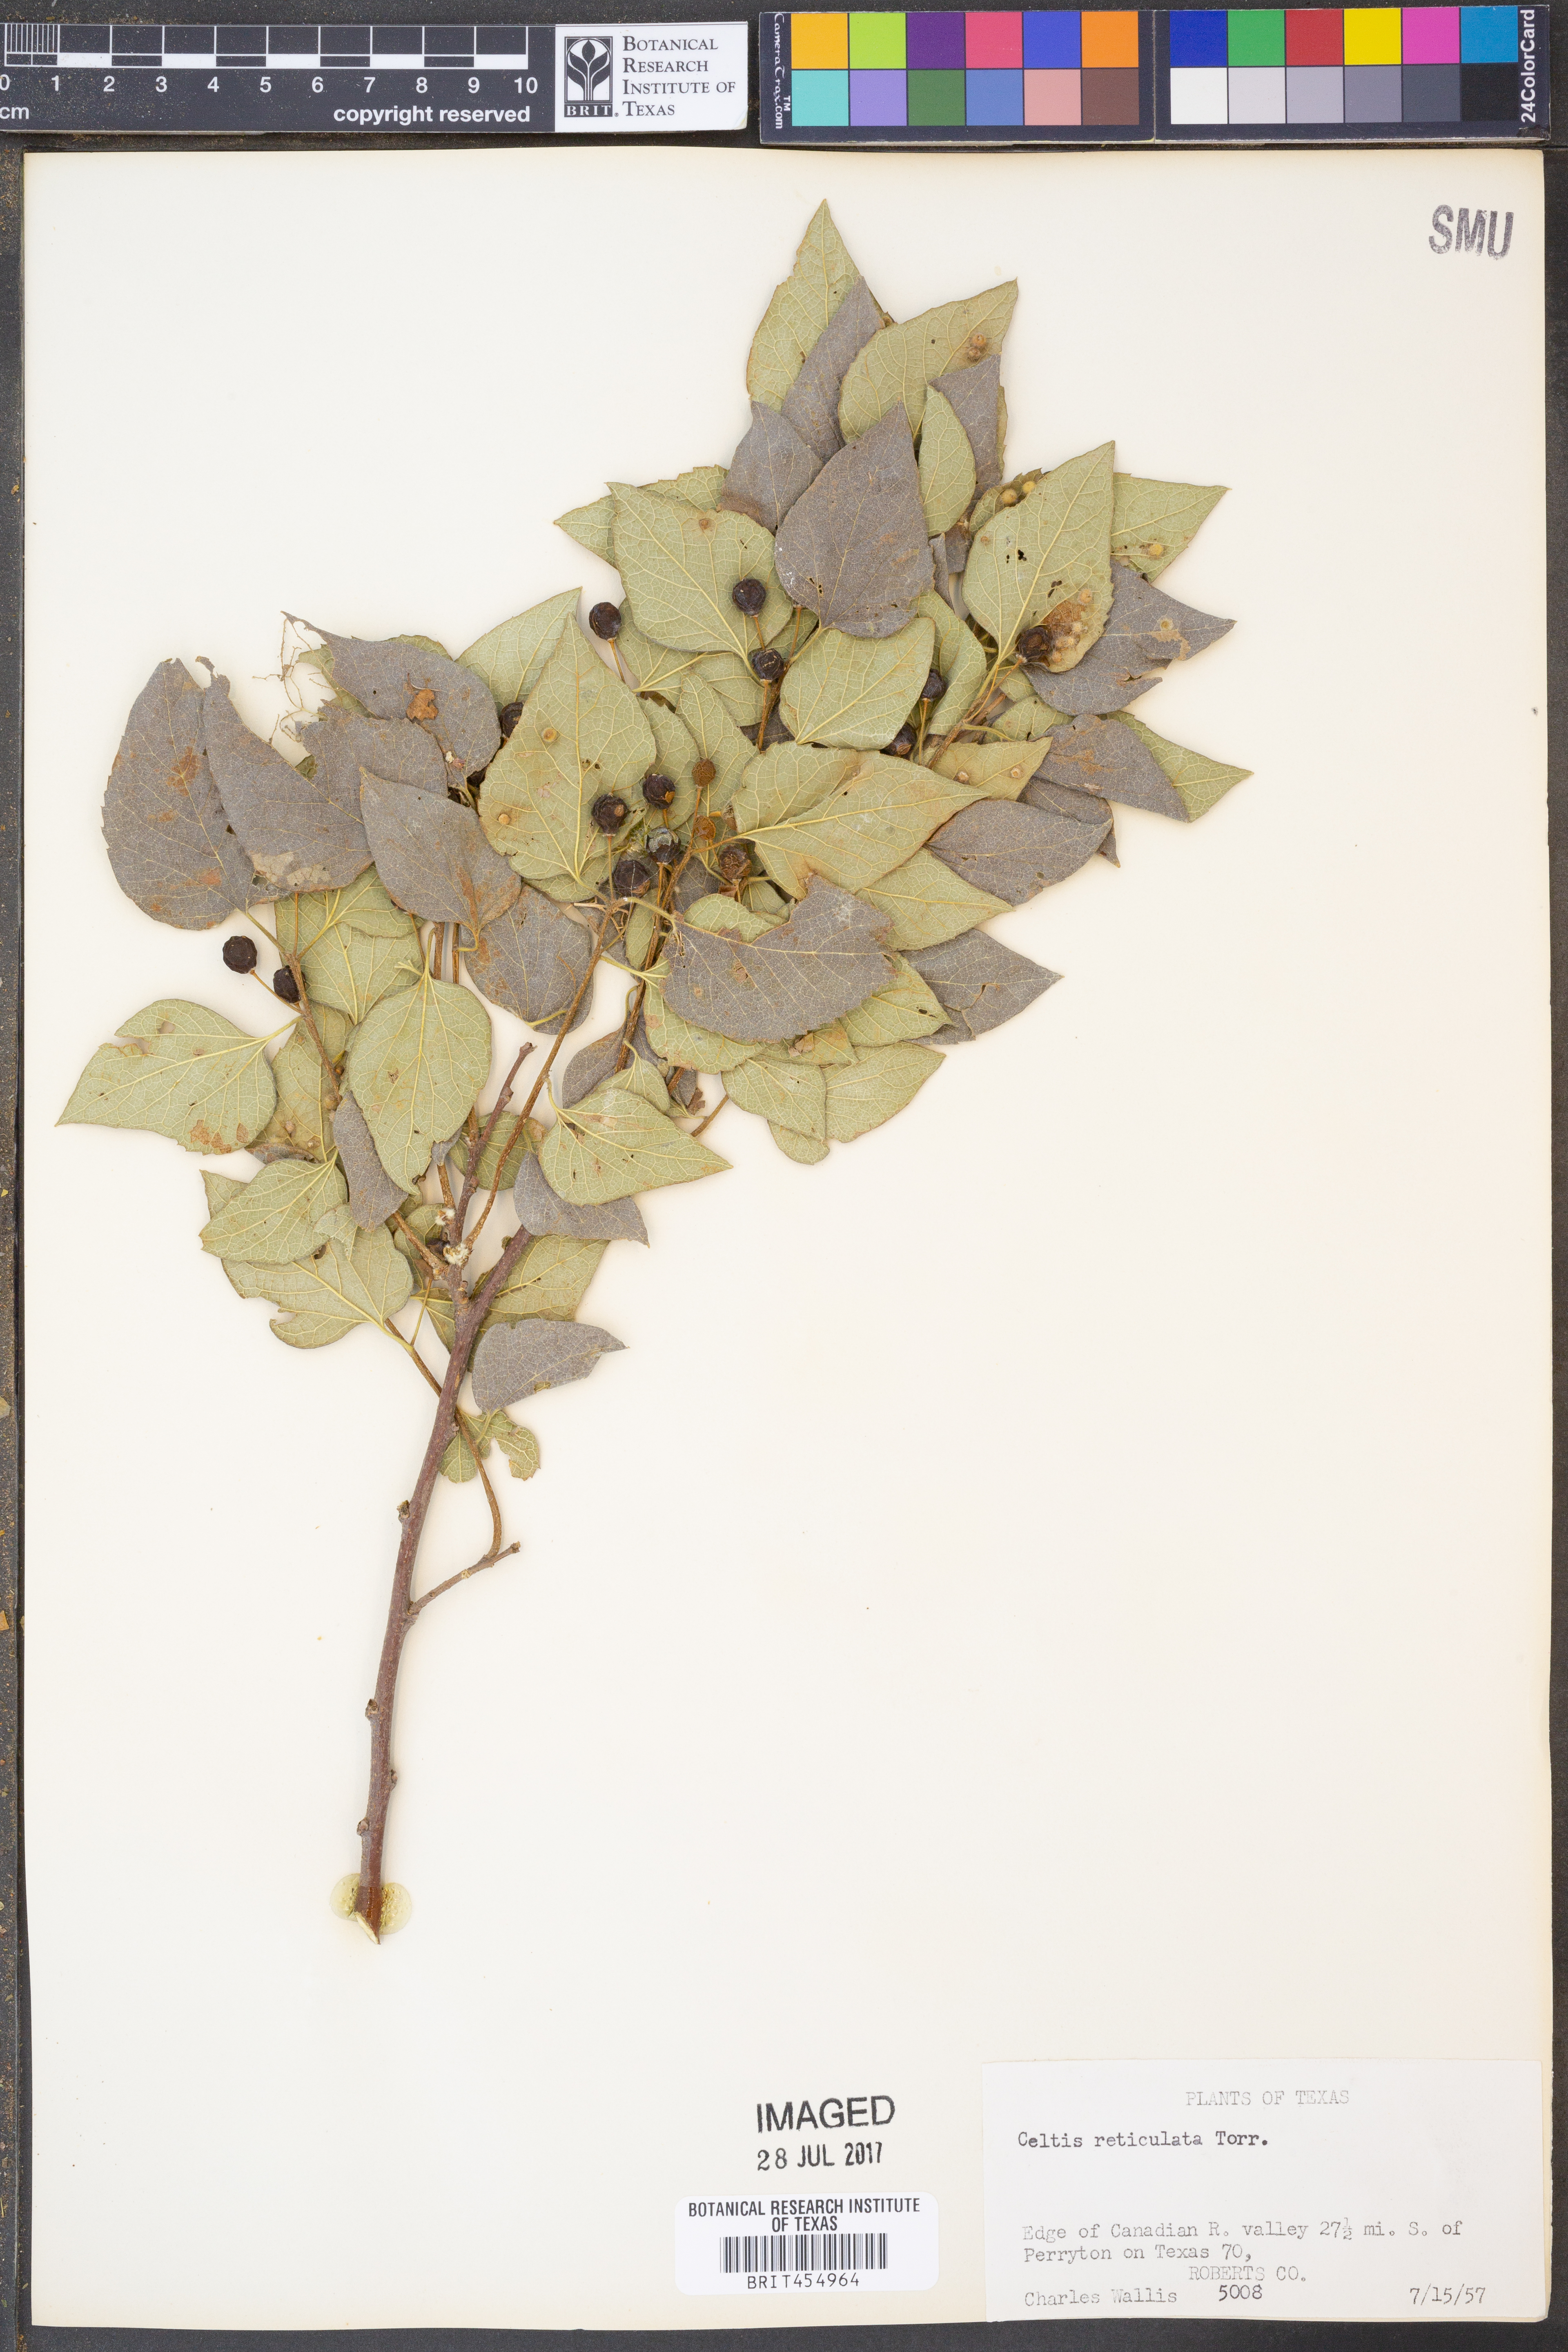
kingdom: Plantae
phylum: Tracheophyta
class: Magnoliopsida
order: Rosales
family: Cannabaceae
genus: Celtis
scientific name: Celtis reticulata
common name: Netleaf hackberry
